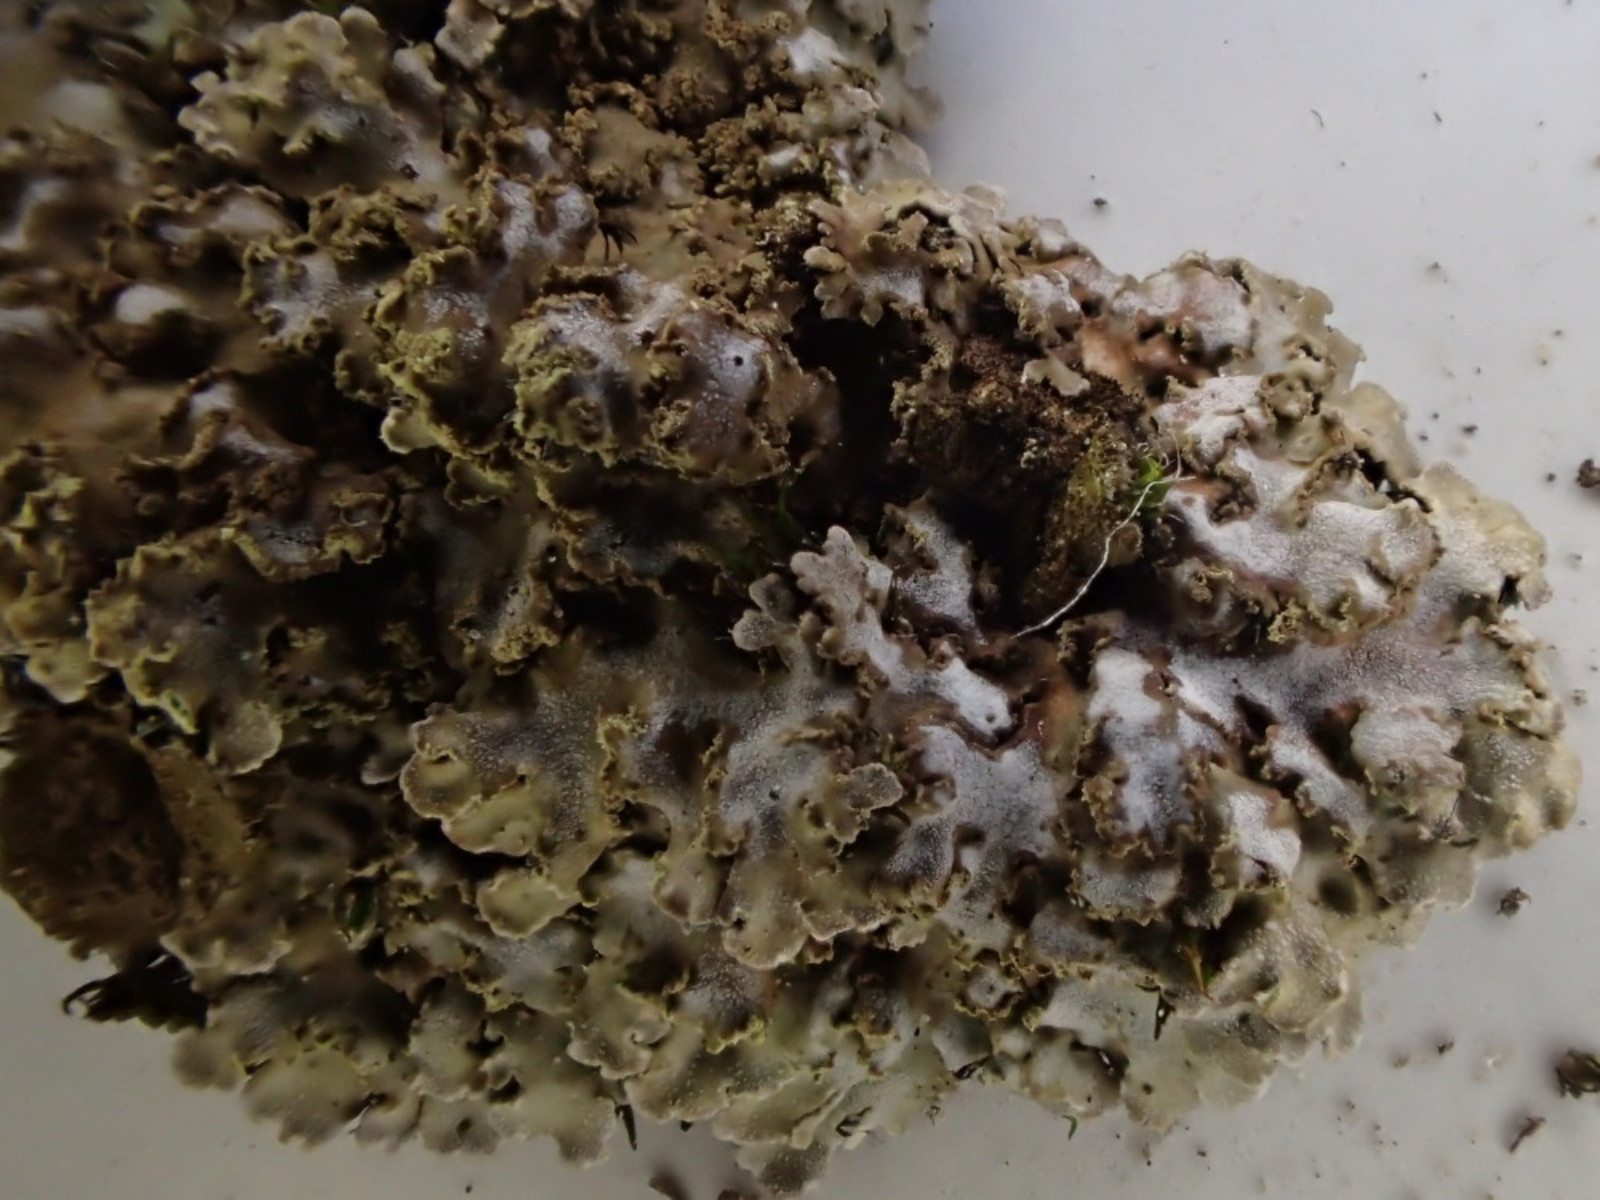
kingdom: Fungi
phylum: Ascomycota
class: Lecanoromycetes
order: Caliciales
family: Physciaceae
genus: Physconia
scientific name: Physconia perisidiosa
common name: liden dugrosetlav
